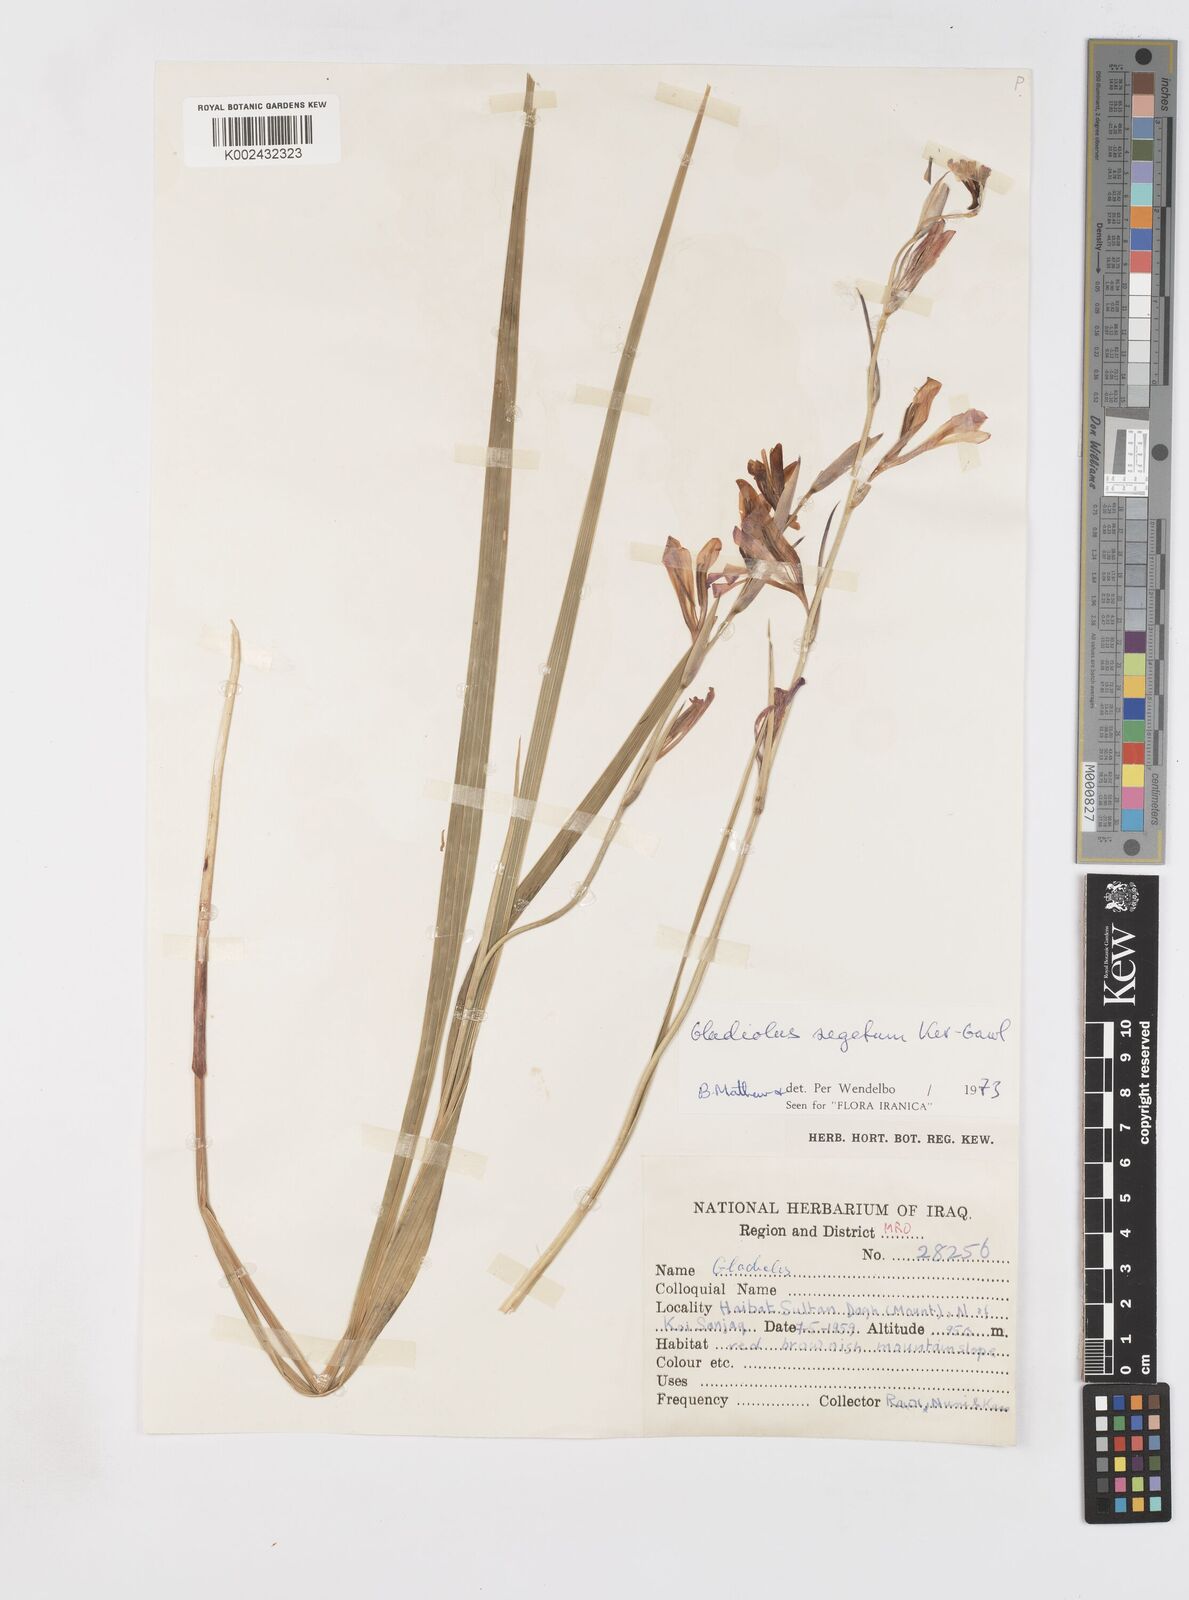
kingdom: Plantae
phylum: Tracheophyta
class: Liliopsida
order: Asparagales
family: Iridaceae
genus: Gladiolus
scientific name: Gladiolus italicus
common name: Field gladiolus
